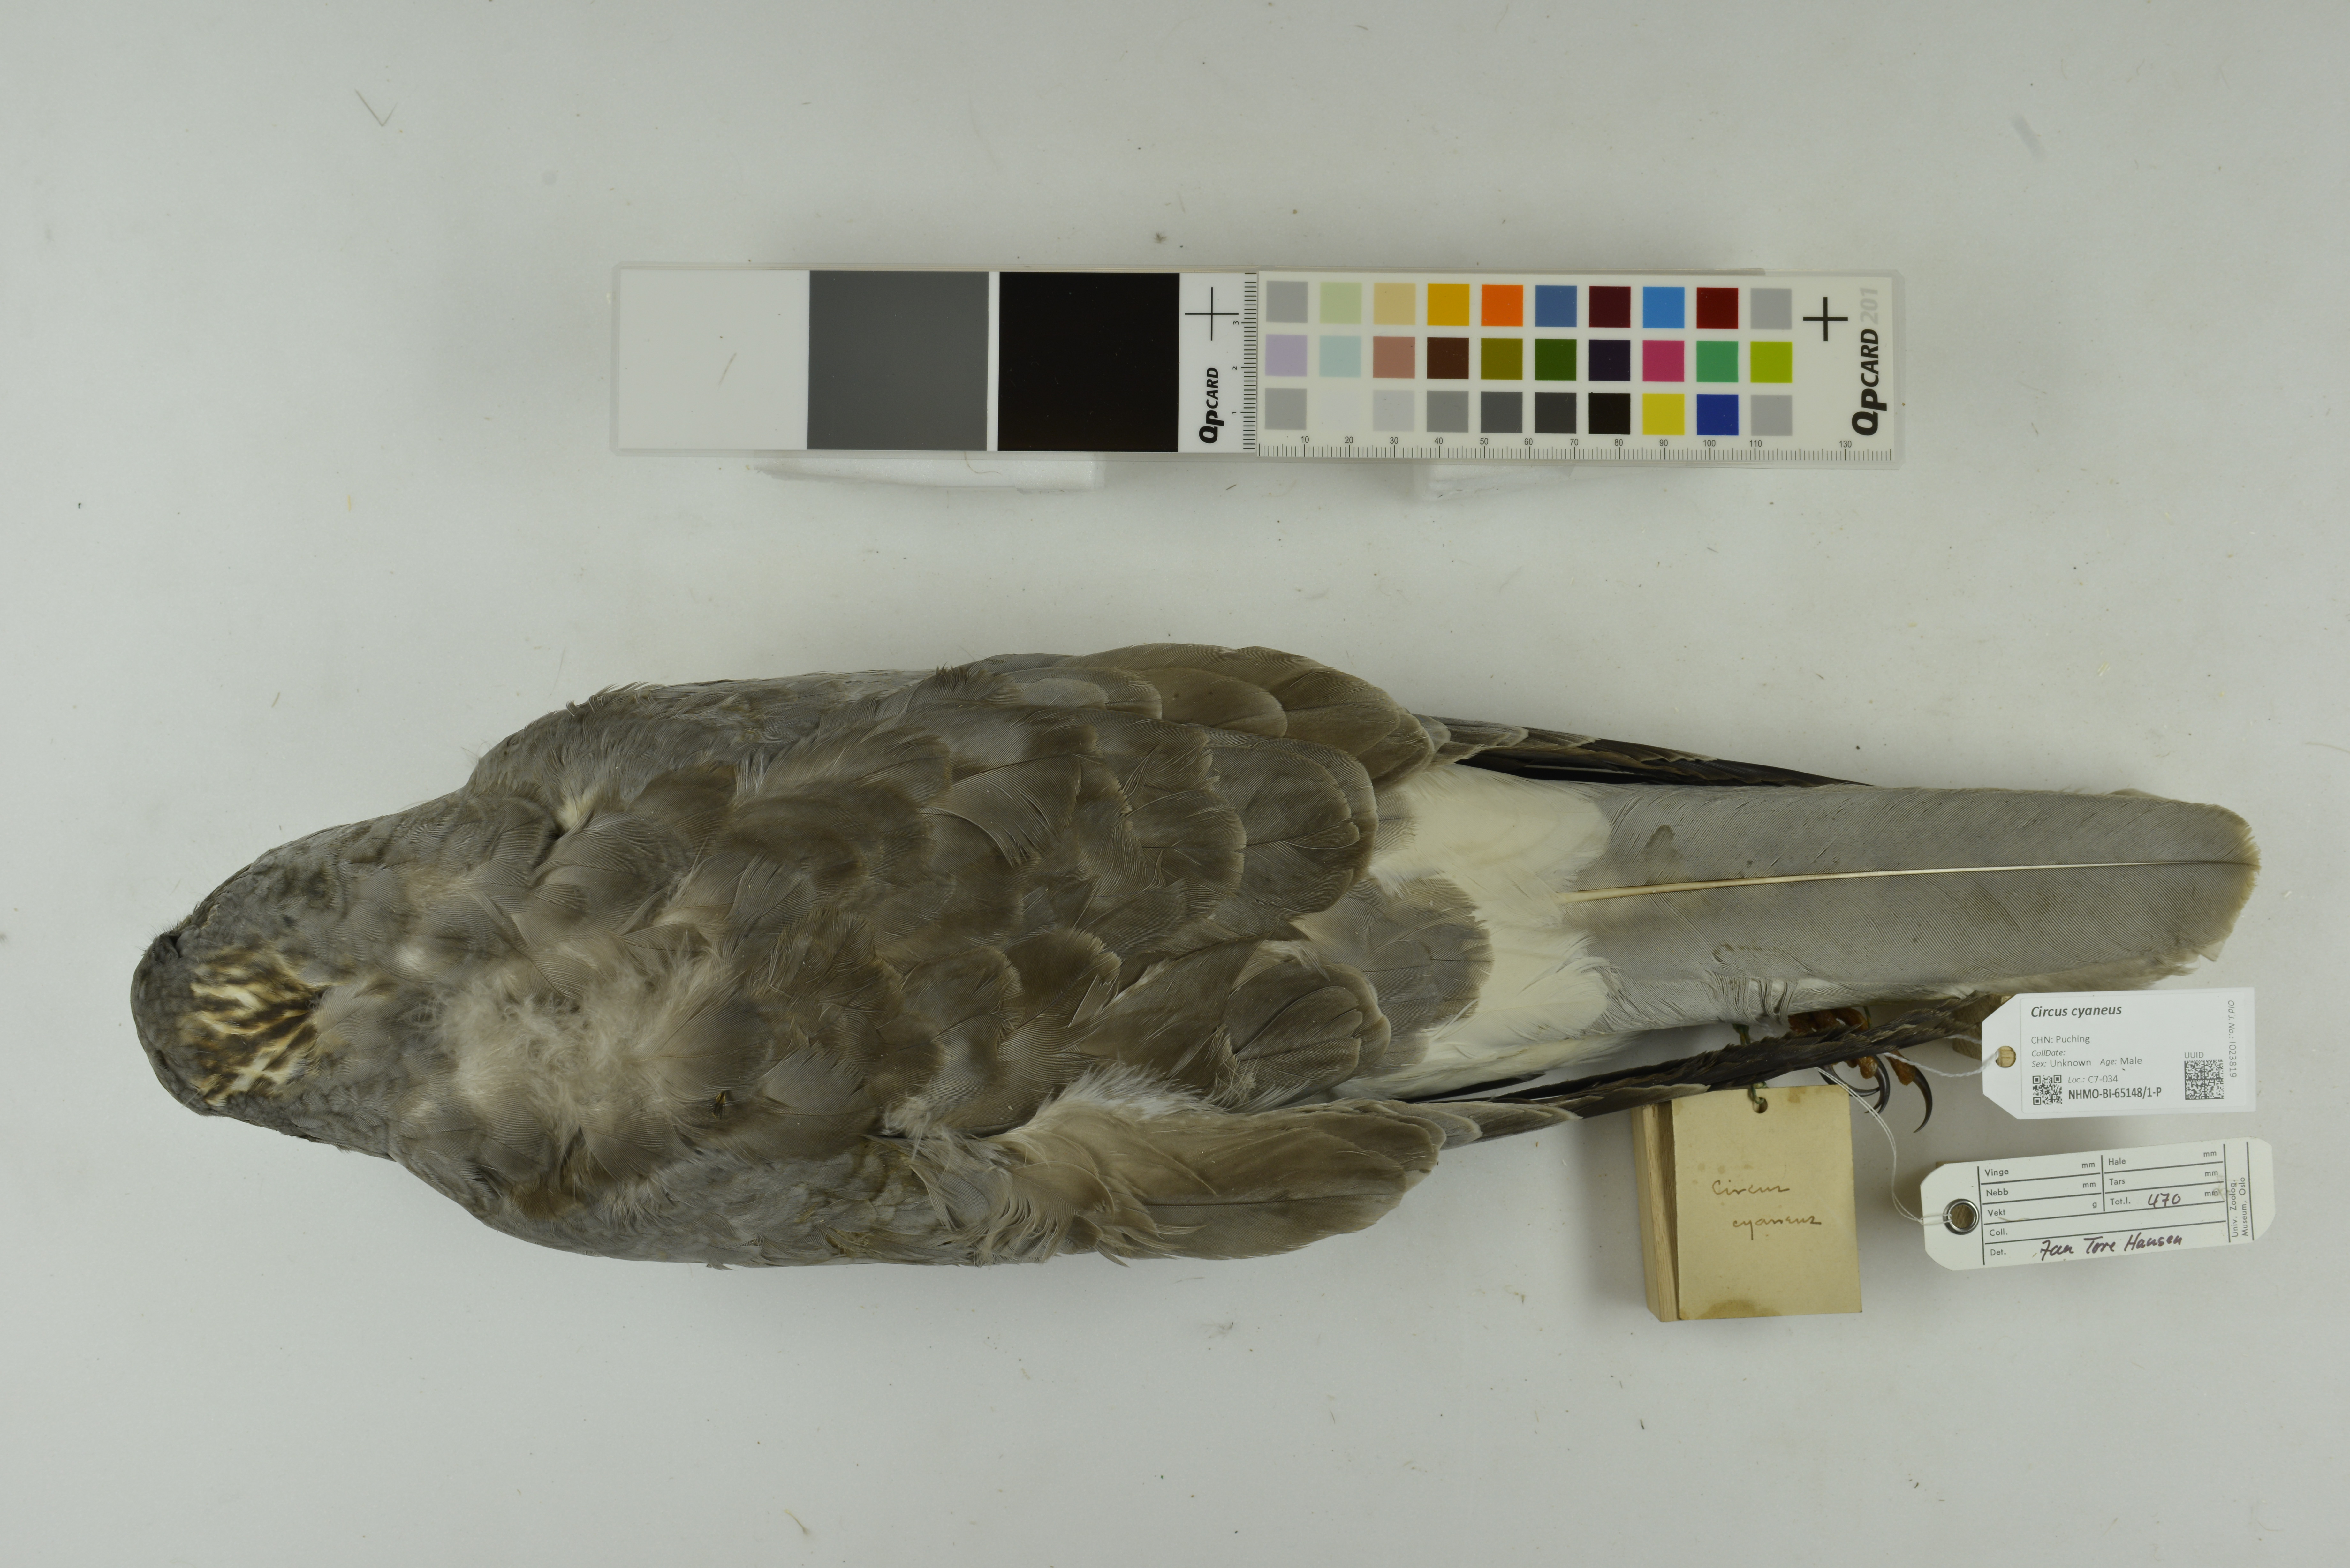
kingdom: Animalia
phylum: Chordata
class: Aves
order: Accipitriformes
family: Accipitridae
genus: Circus
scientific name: Circus cyaneus
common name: Hen harrier
